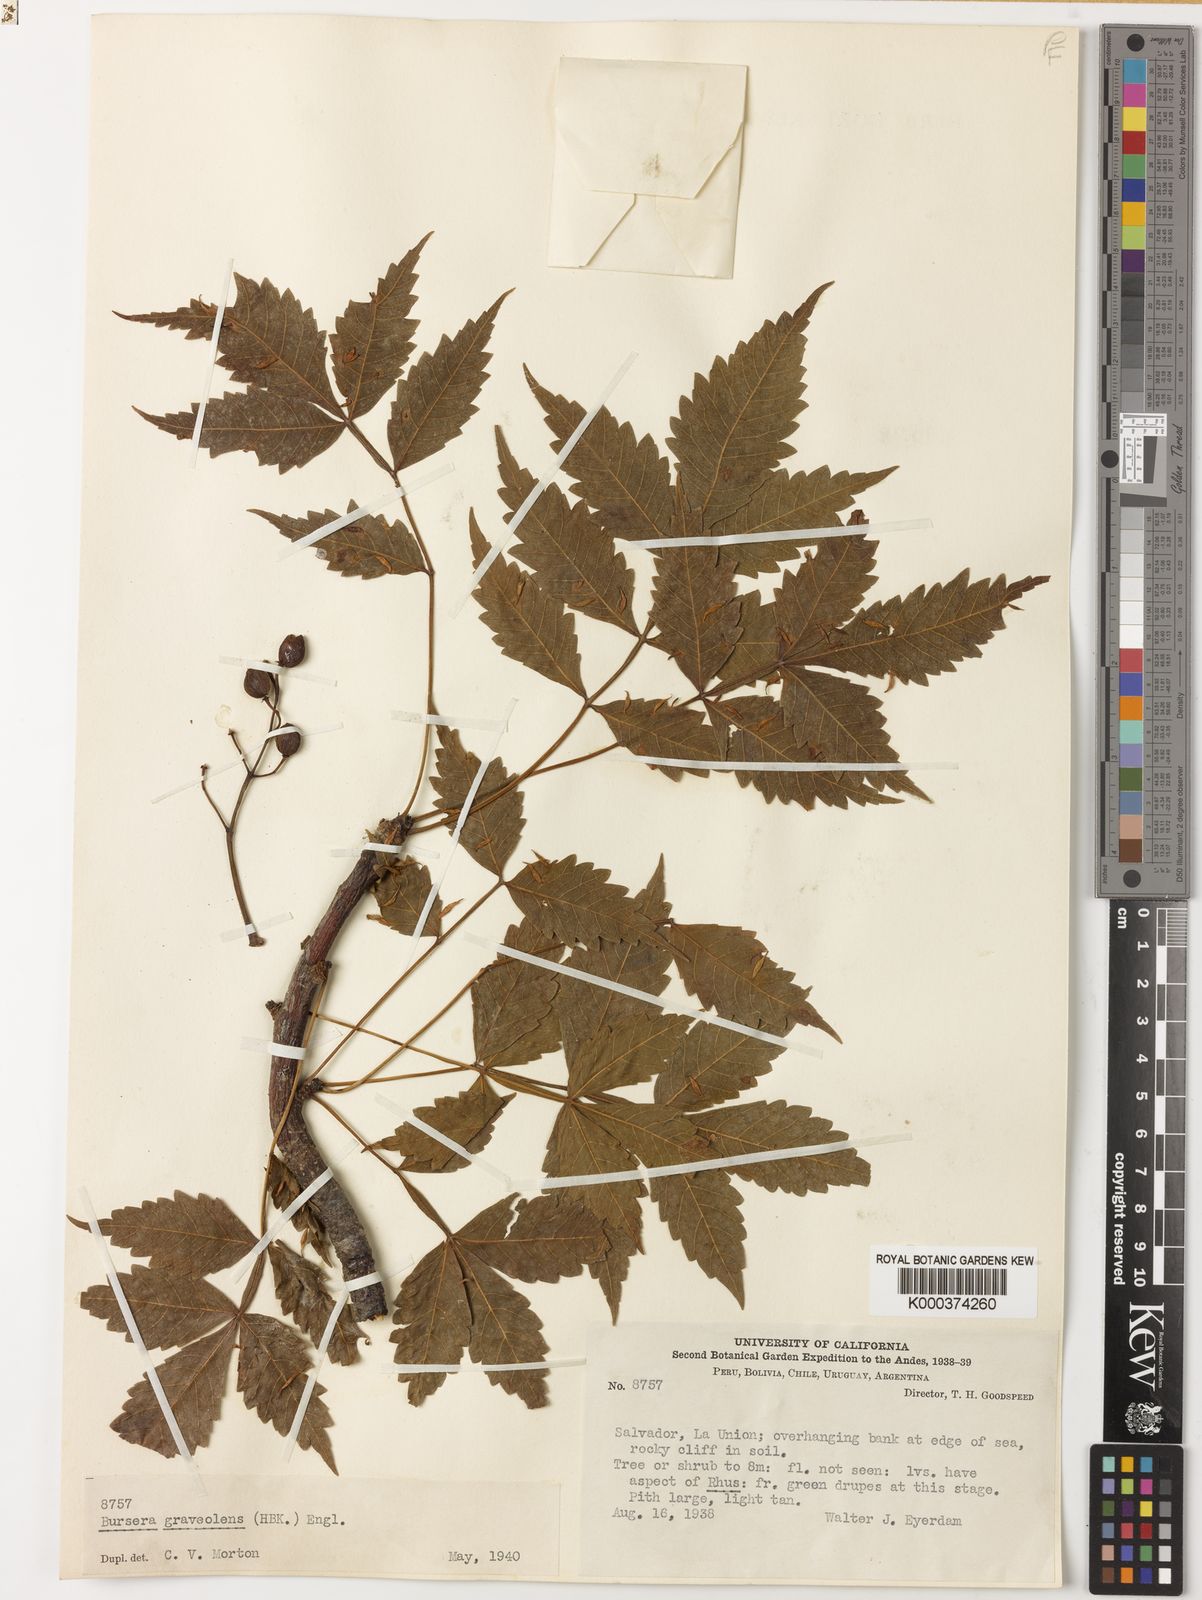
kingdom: Plantae
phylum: Tracheophyta
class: Magnoliopsida
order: Sapindales
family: Burseraceae
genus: Bursera
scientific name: Bursera
